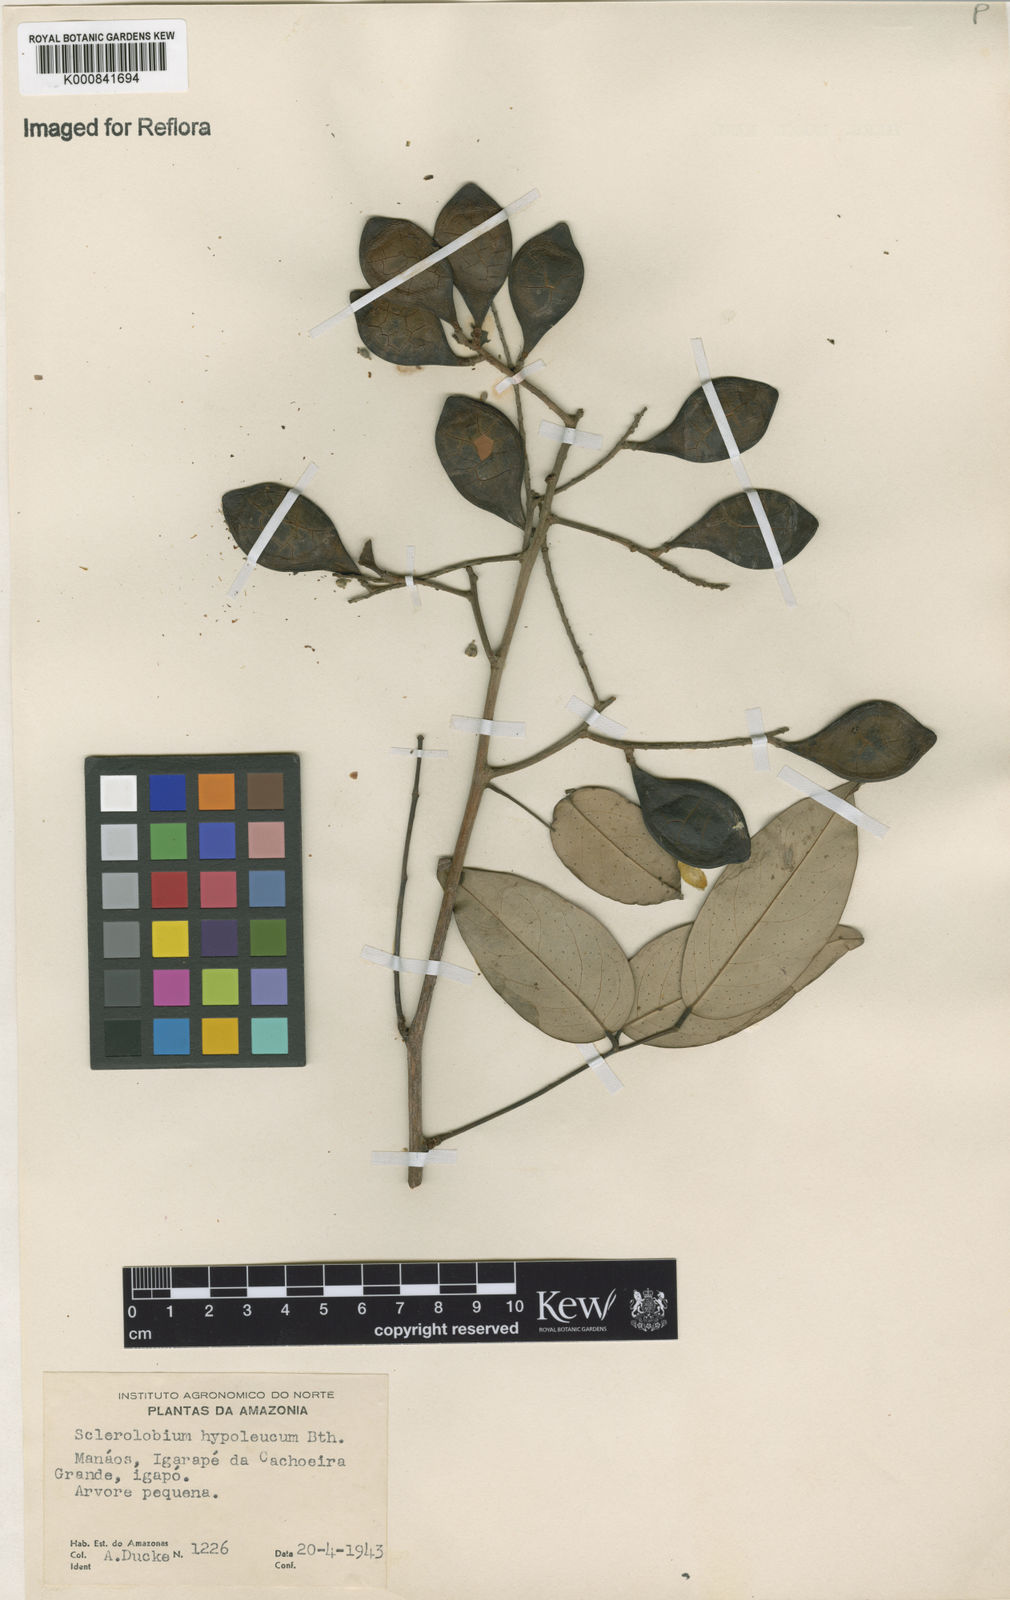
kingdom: Plantae
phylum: Tracheophyta
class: Magnoliopsida
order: Fabales
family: Fabaceae
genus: Tachigali
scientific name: Tachigali hypoleuca
